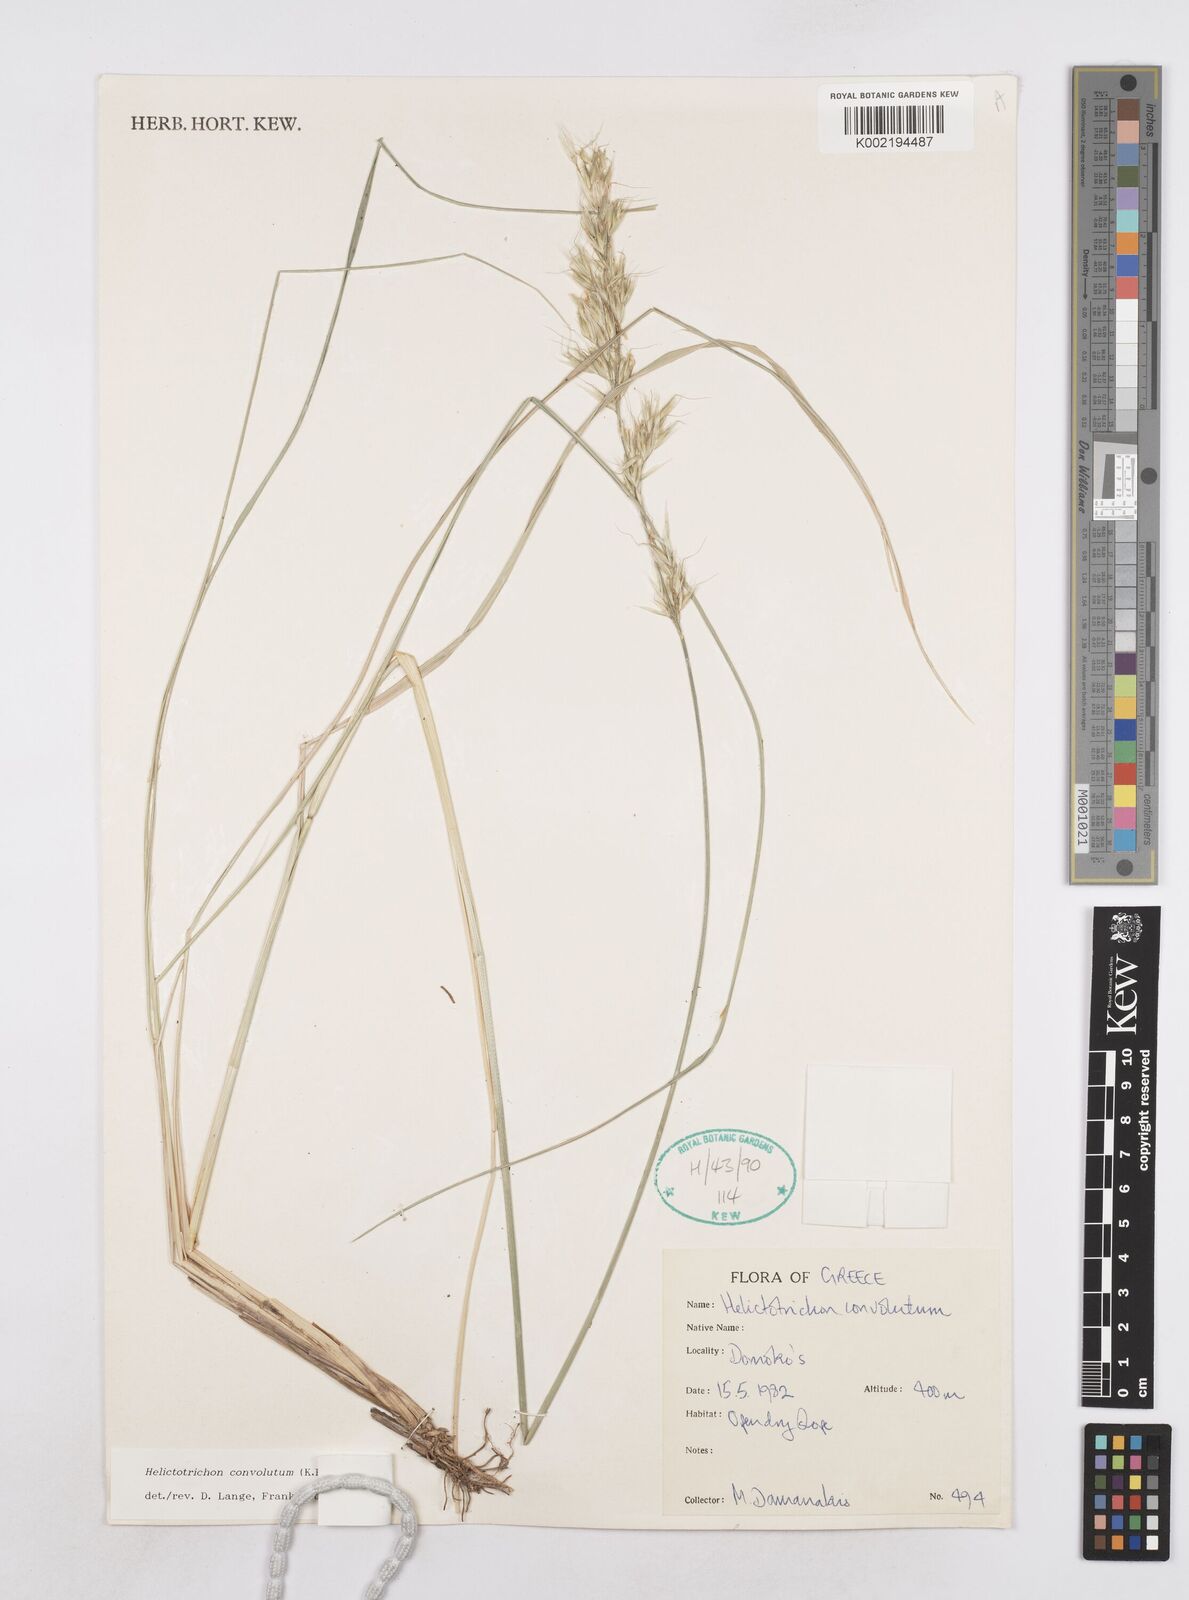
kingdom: Plantae
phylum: Tracheophyta
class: Liliopsida
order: Poales
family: Poaceae
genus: Helictotrichon
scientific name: Helictotrichon convolutum
